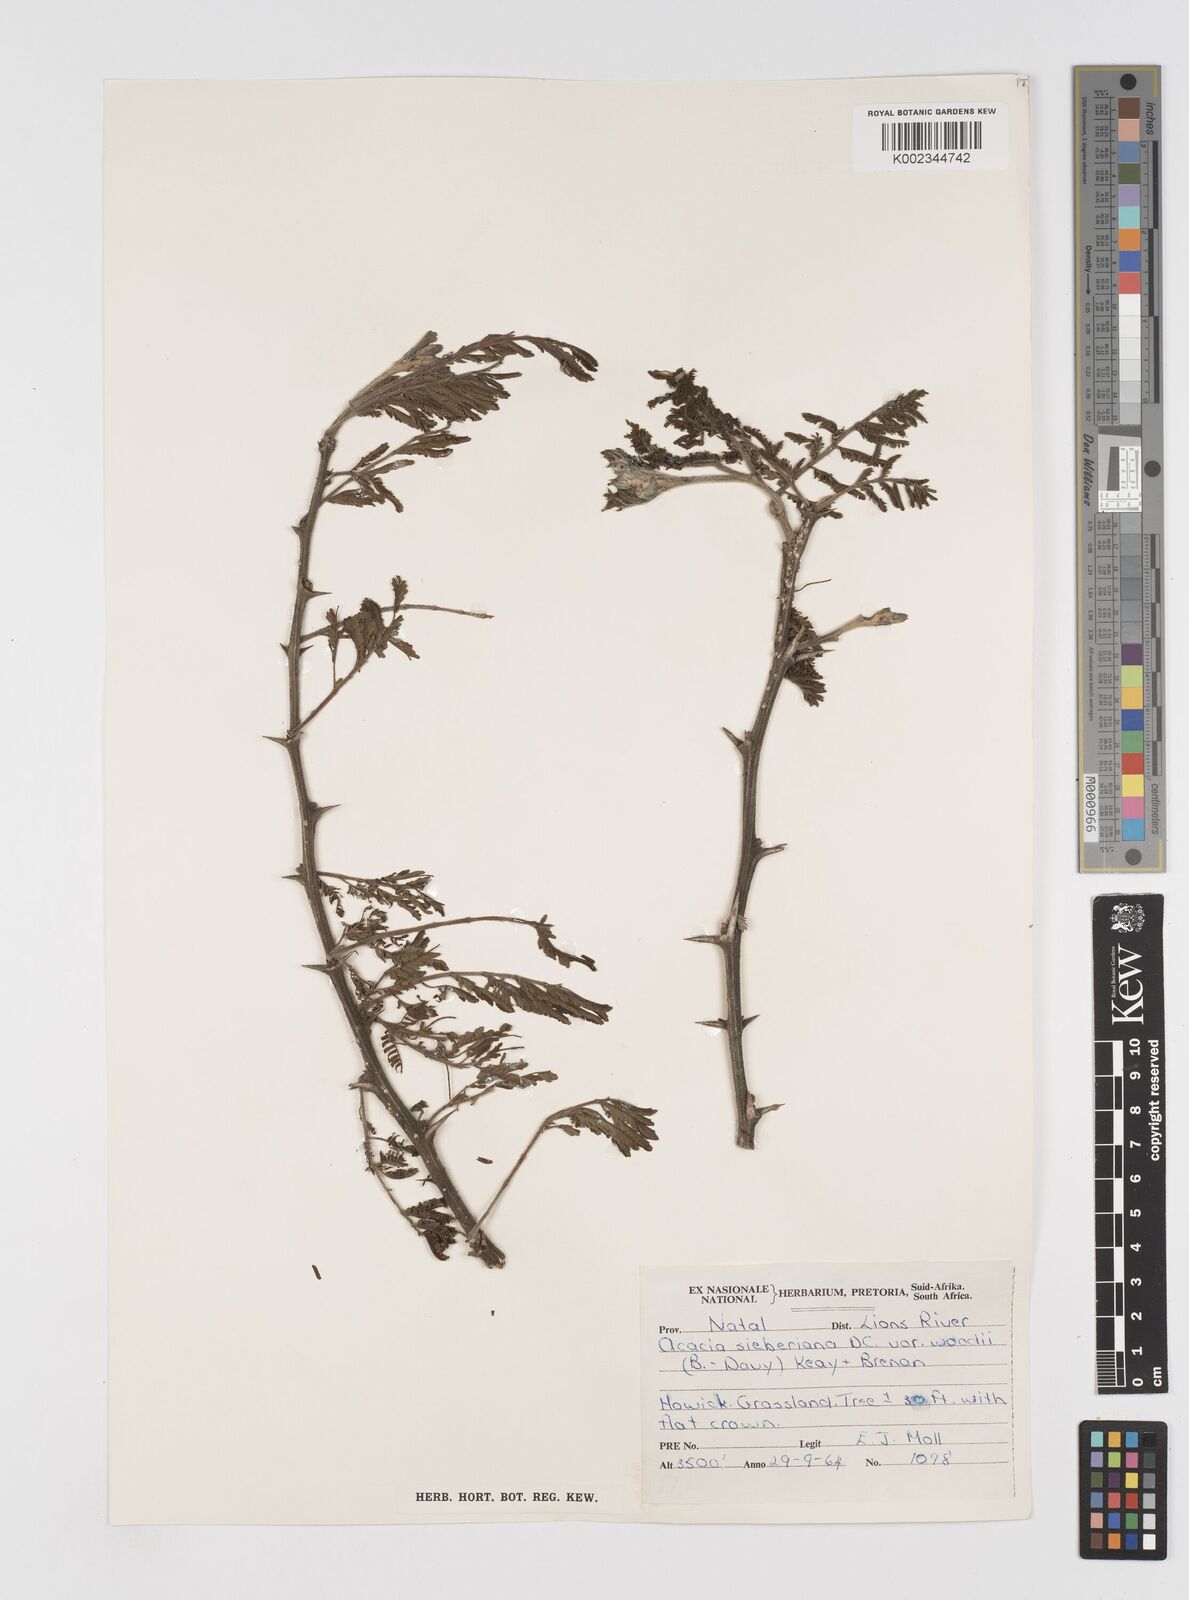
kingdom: Plantae
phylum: Tracheophyta
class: Magnoliopsida
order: Fabales
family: Fabaceae
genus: Acacia
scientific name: Acacia hamiltoniana
